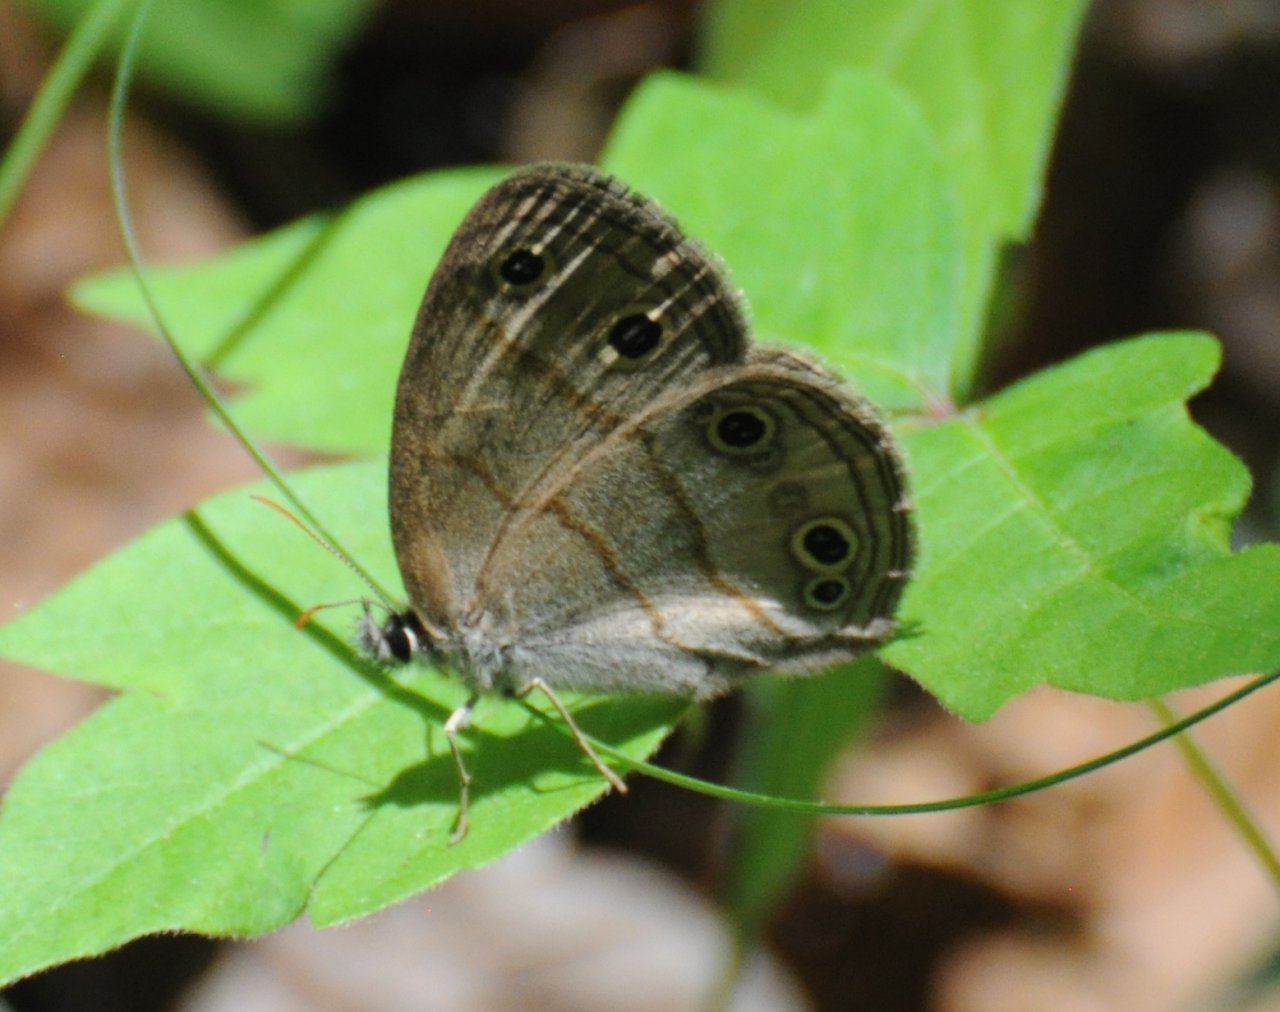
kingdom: Animalia
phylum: Arthropoda
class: Insecta
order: Lepidoptera
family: Nymphalidae
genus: Euptychia
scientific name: Euptychia cymela
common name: Little Wood Satyr
